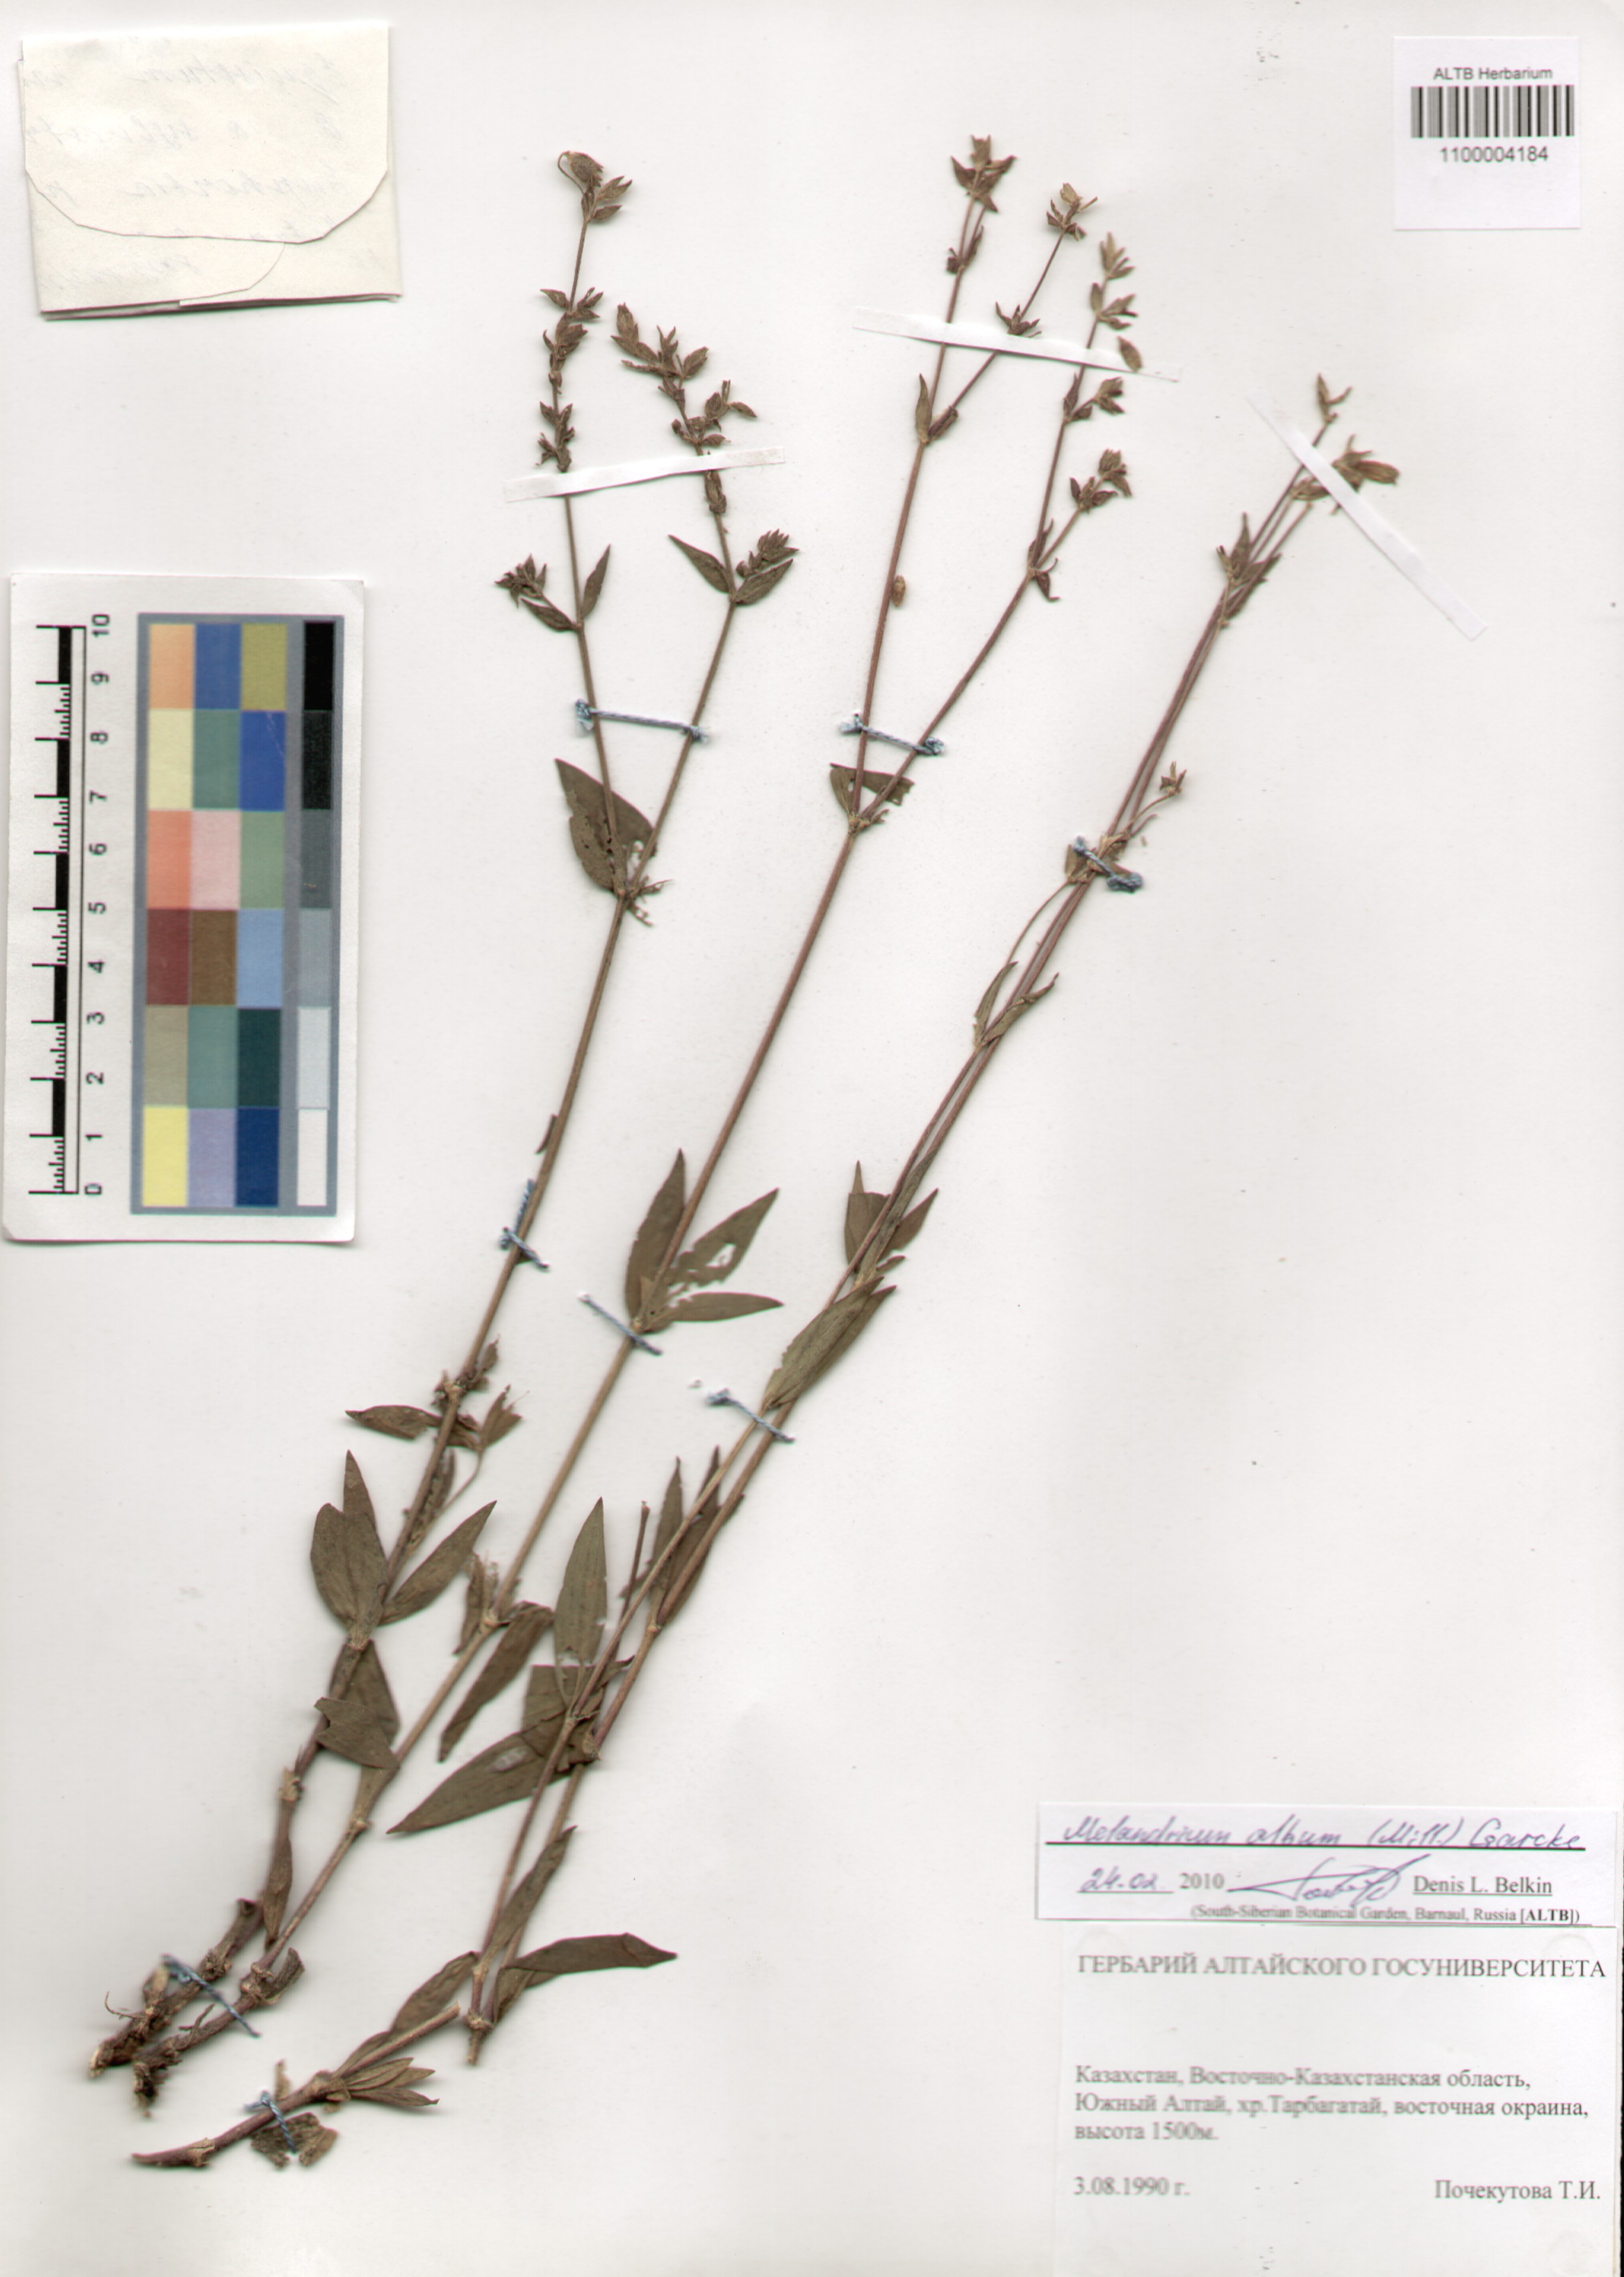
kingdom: Plantae
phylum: Tracheophyta
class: Magnoliopsida
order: Caryophyllales
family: Caryophyllaceae
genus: Silene
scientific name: Silene latifolia
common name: White campion
